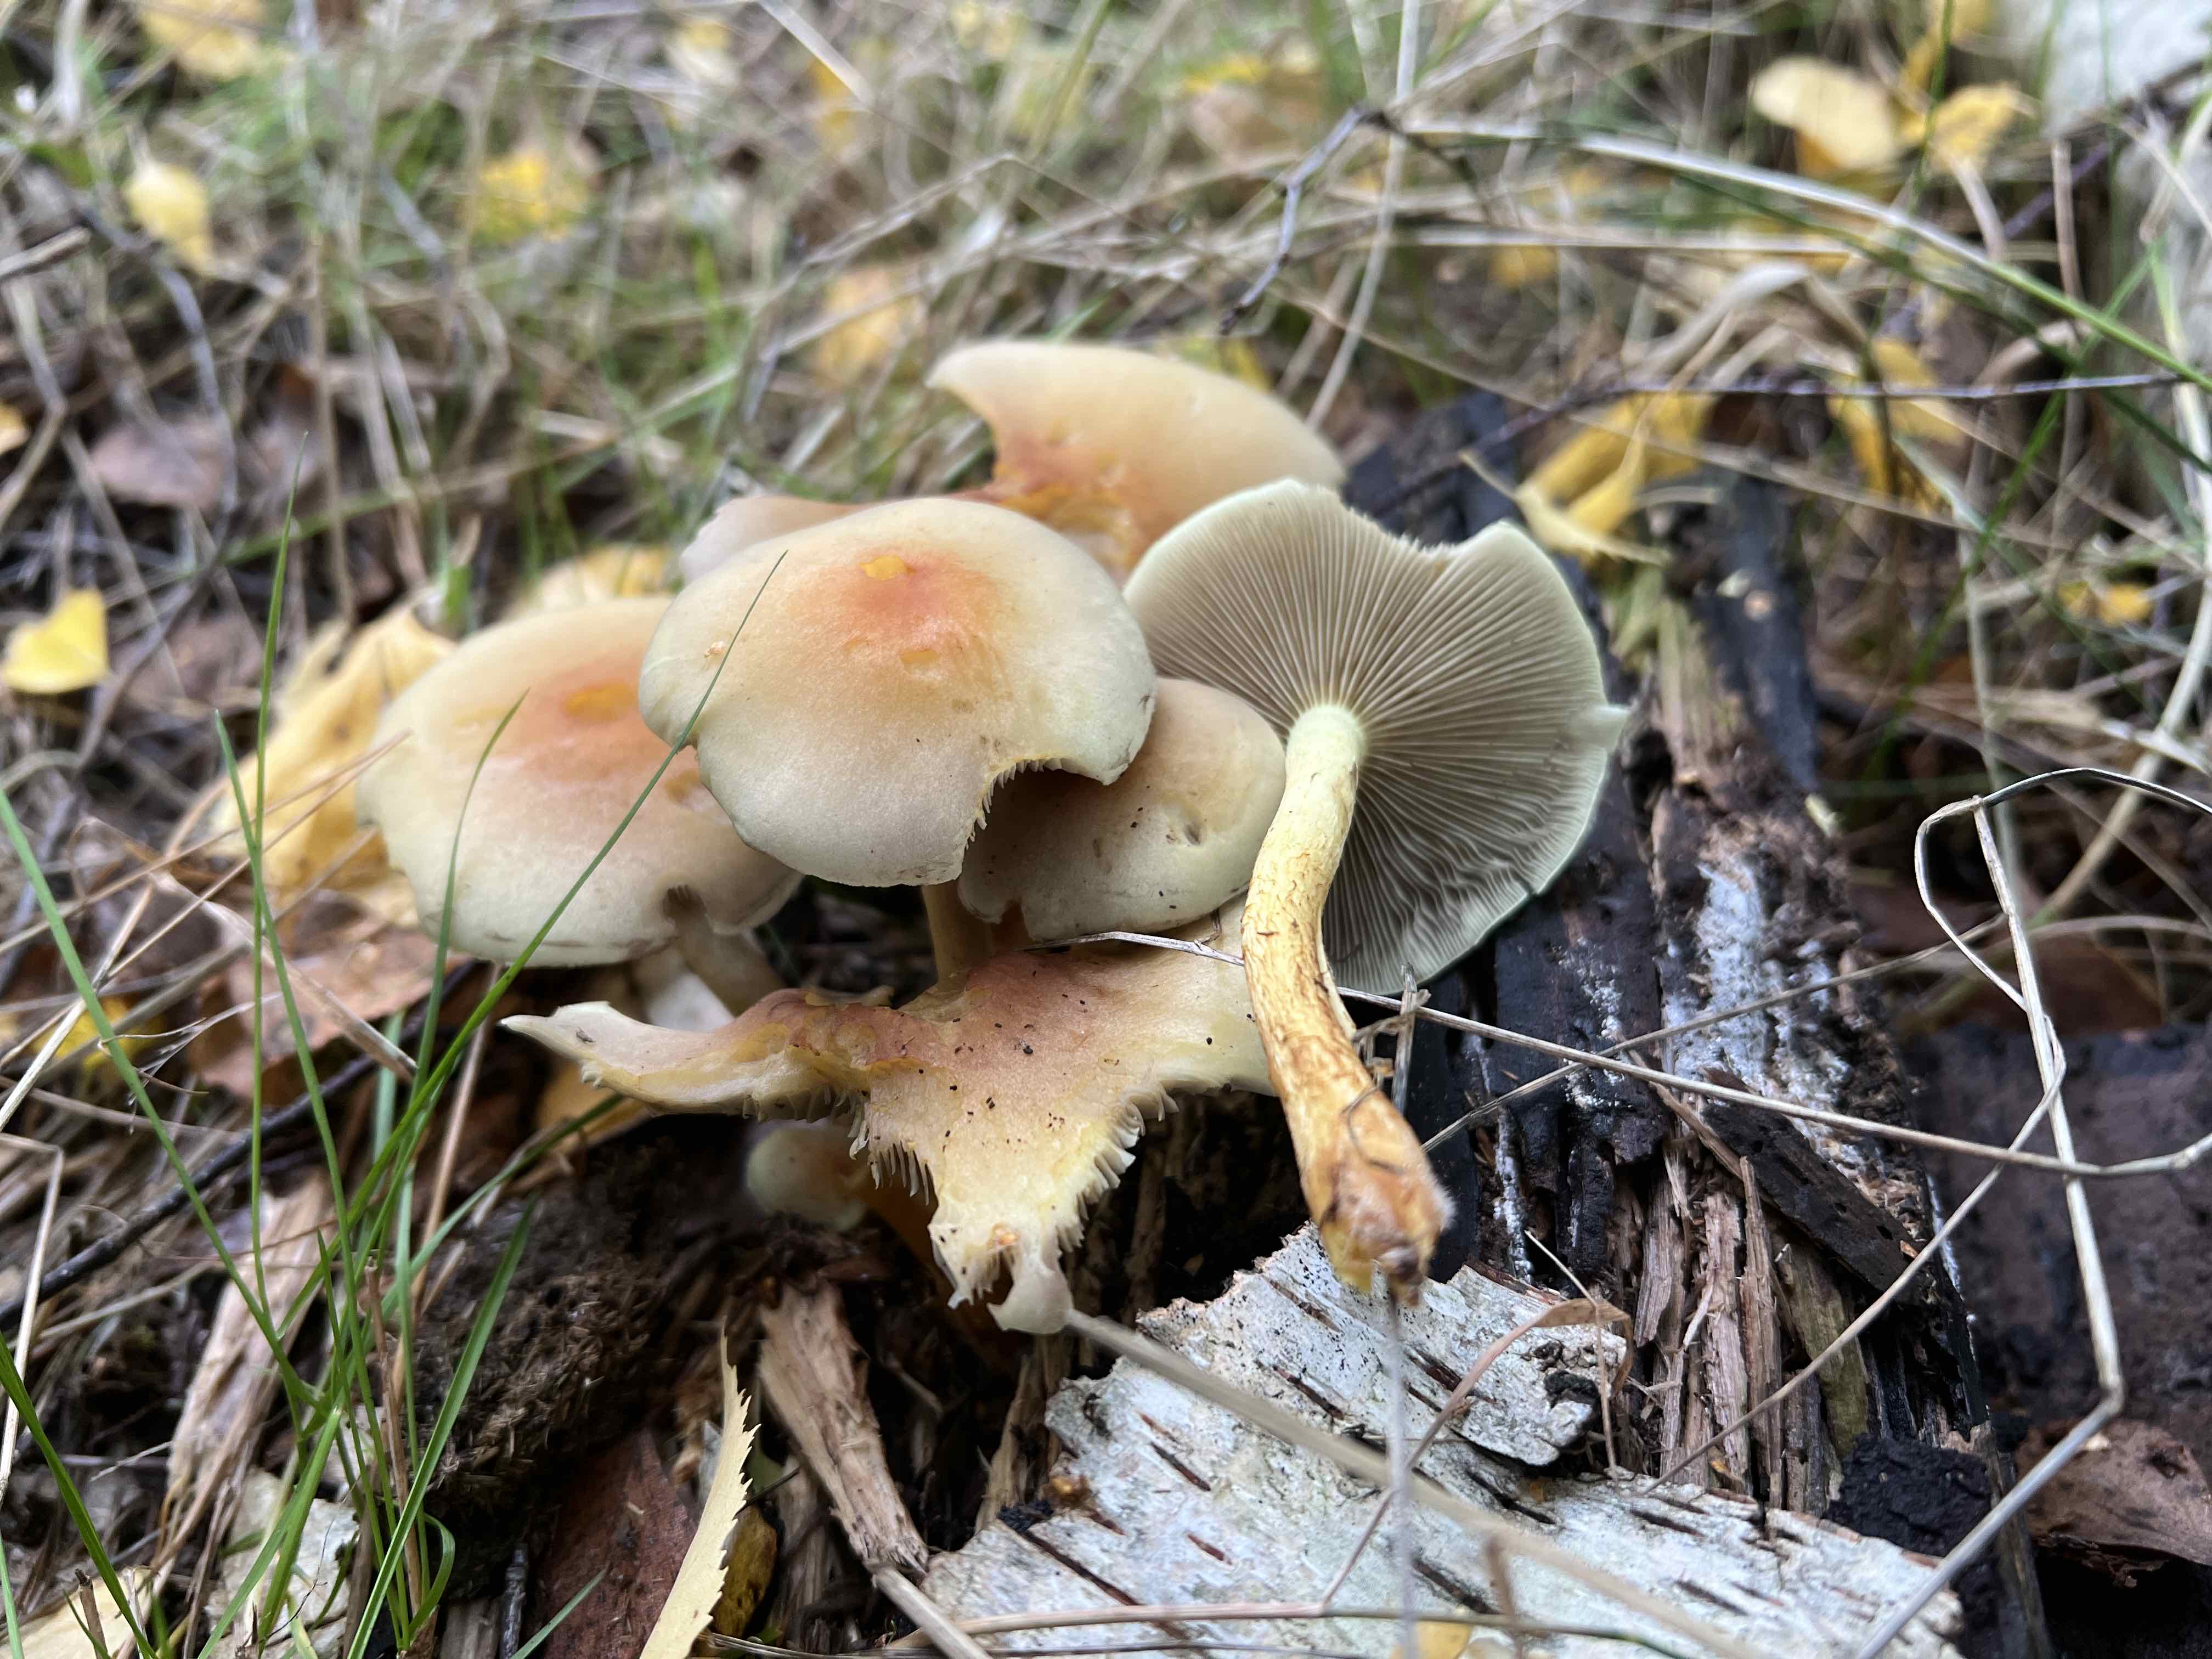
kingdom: Fungi
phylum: Basidiomycota
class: Agaricomycetes
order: Agaricales
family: Strophariaceae
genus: Hypholoma
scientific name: Hypholoma fasciculare
